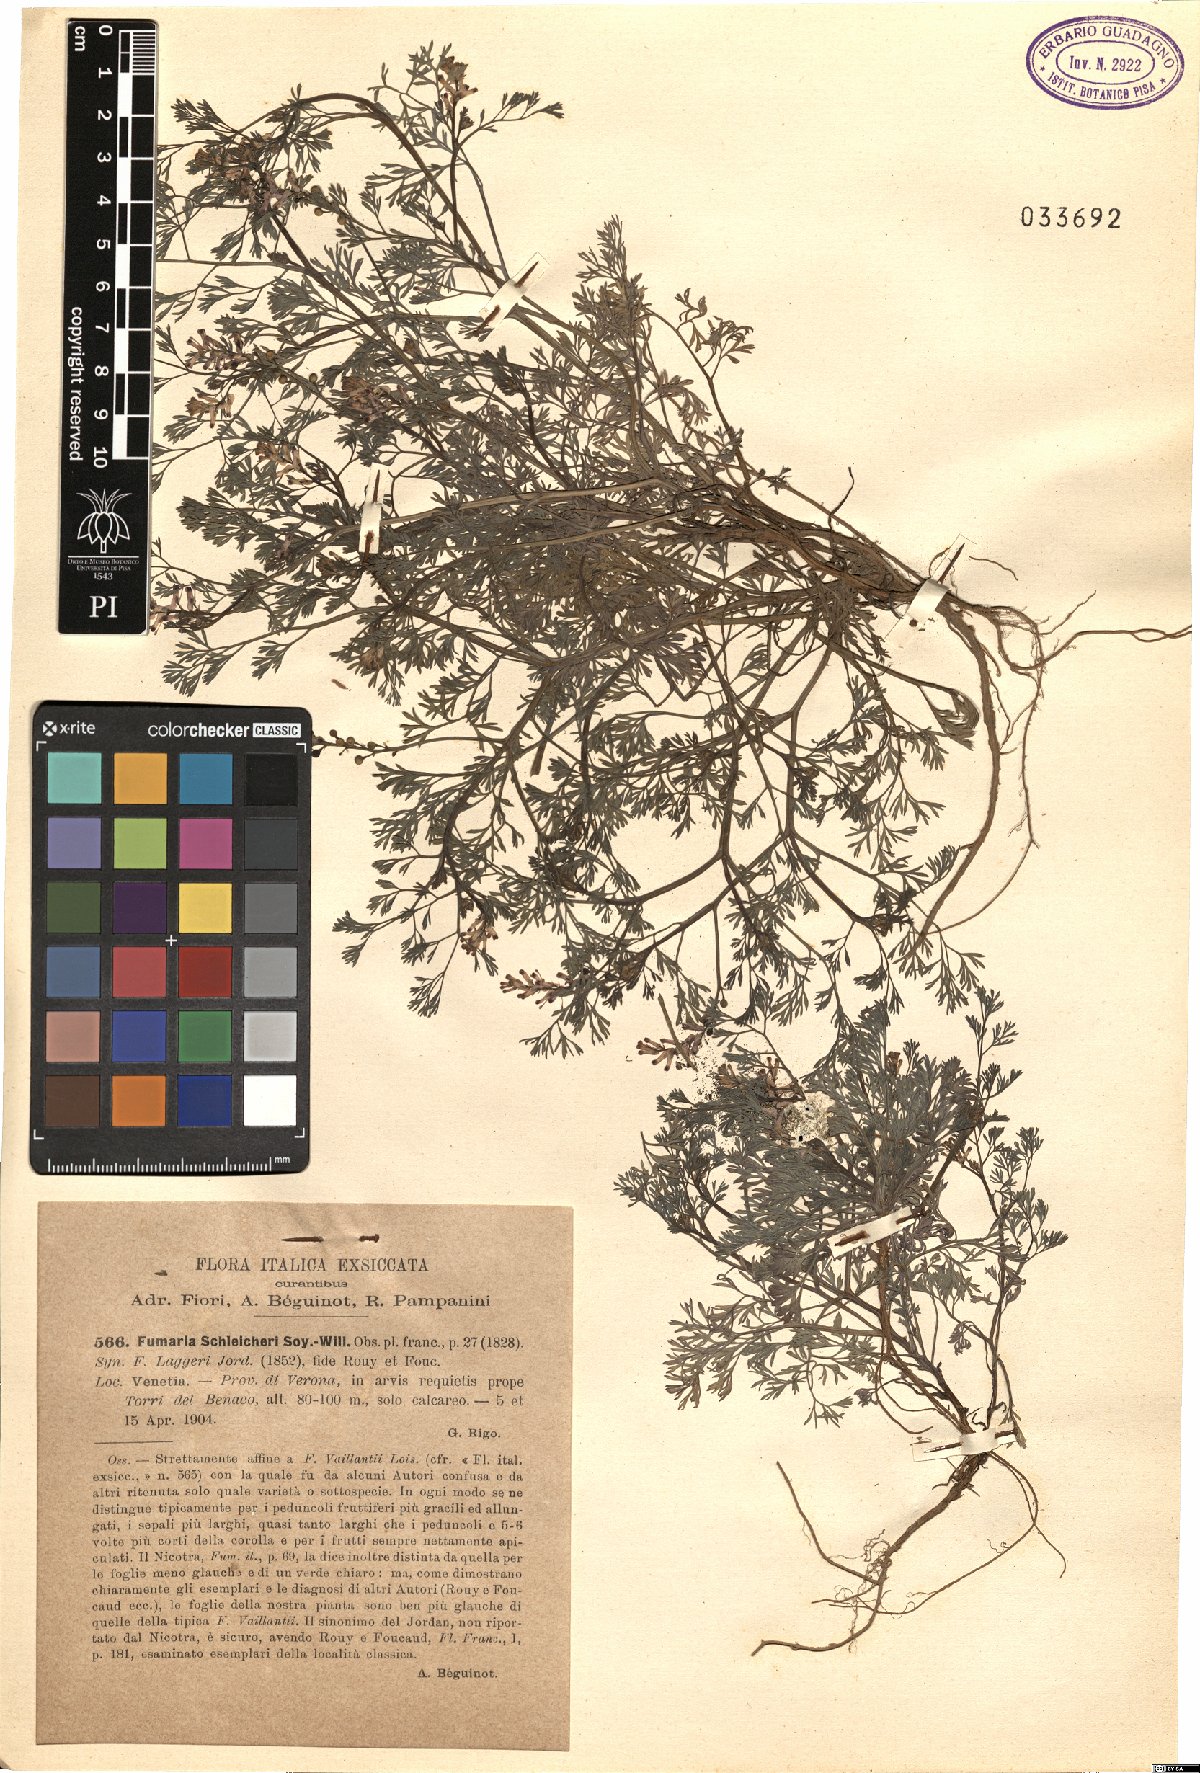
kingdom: Plantae
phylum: Tracheophyta
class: Magnoliopsida
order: Ranunculales
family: Papaveraceae
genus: Fumaria
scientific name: Fumaria schleicheri
